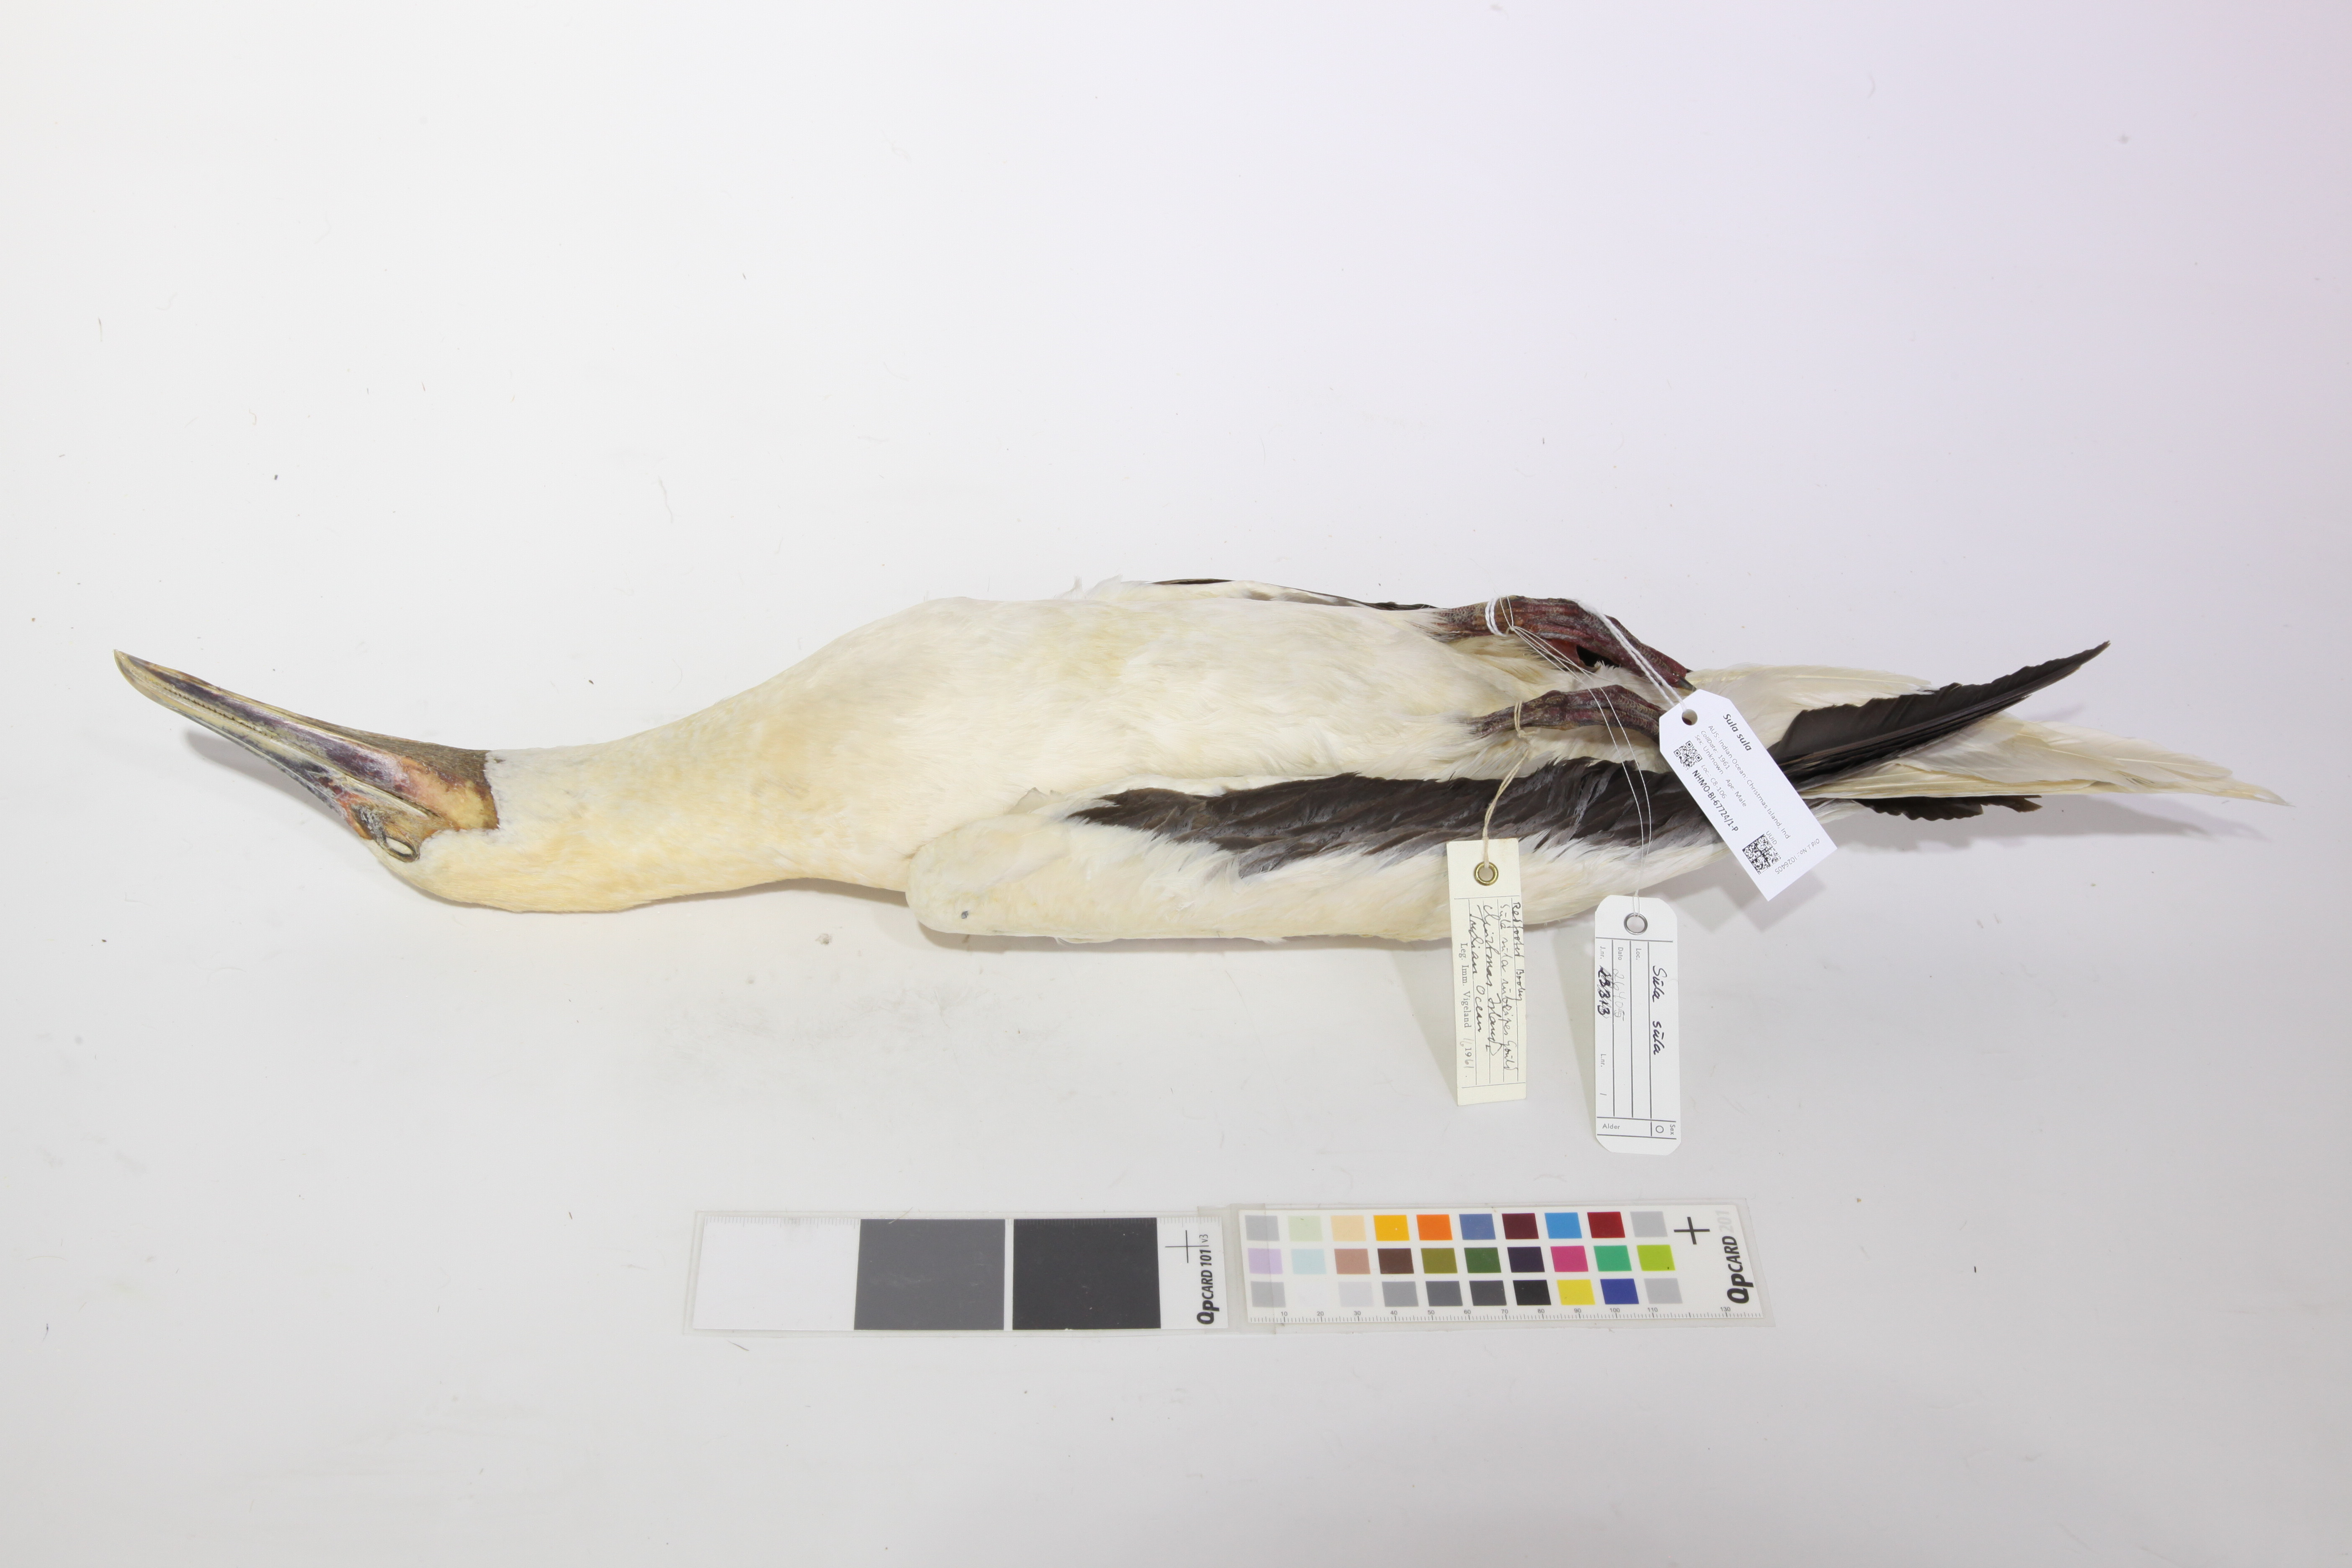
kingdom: Animalia
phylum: Chordata
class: Aves
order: Suliformes
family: Sulidae
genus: Sula
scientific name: Sula sula
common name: Red-footed booby
